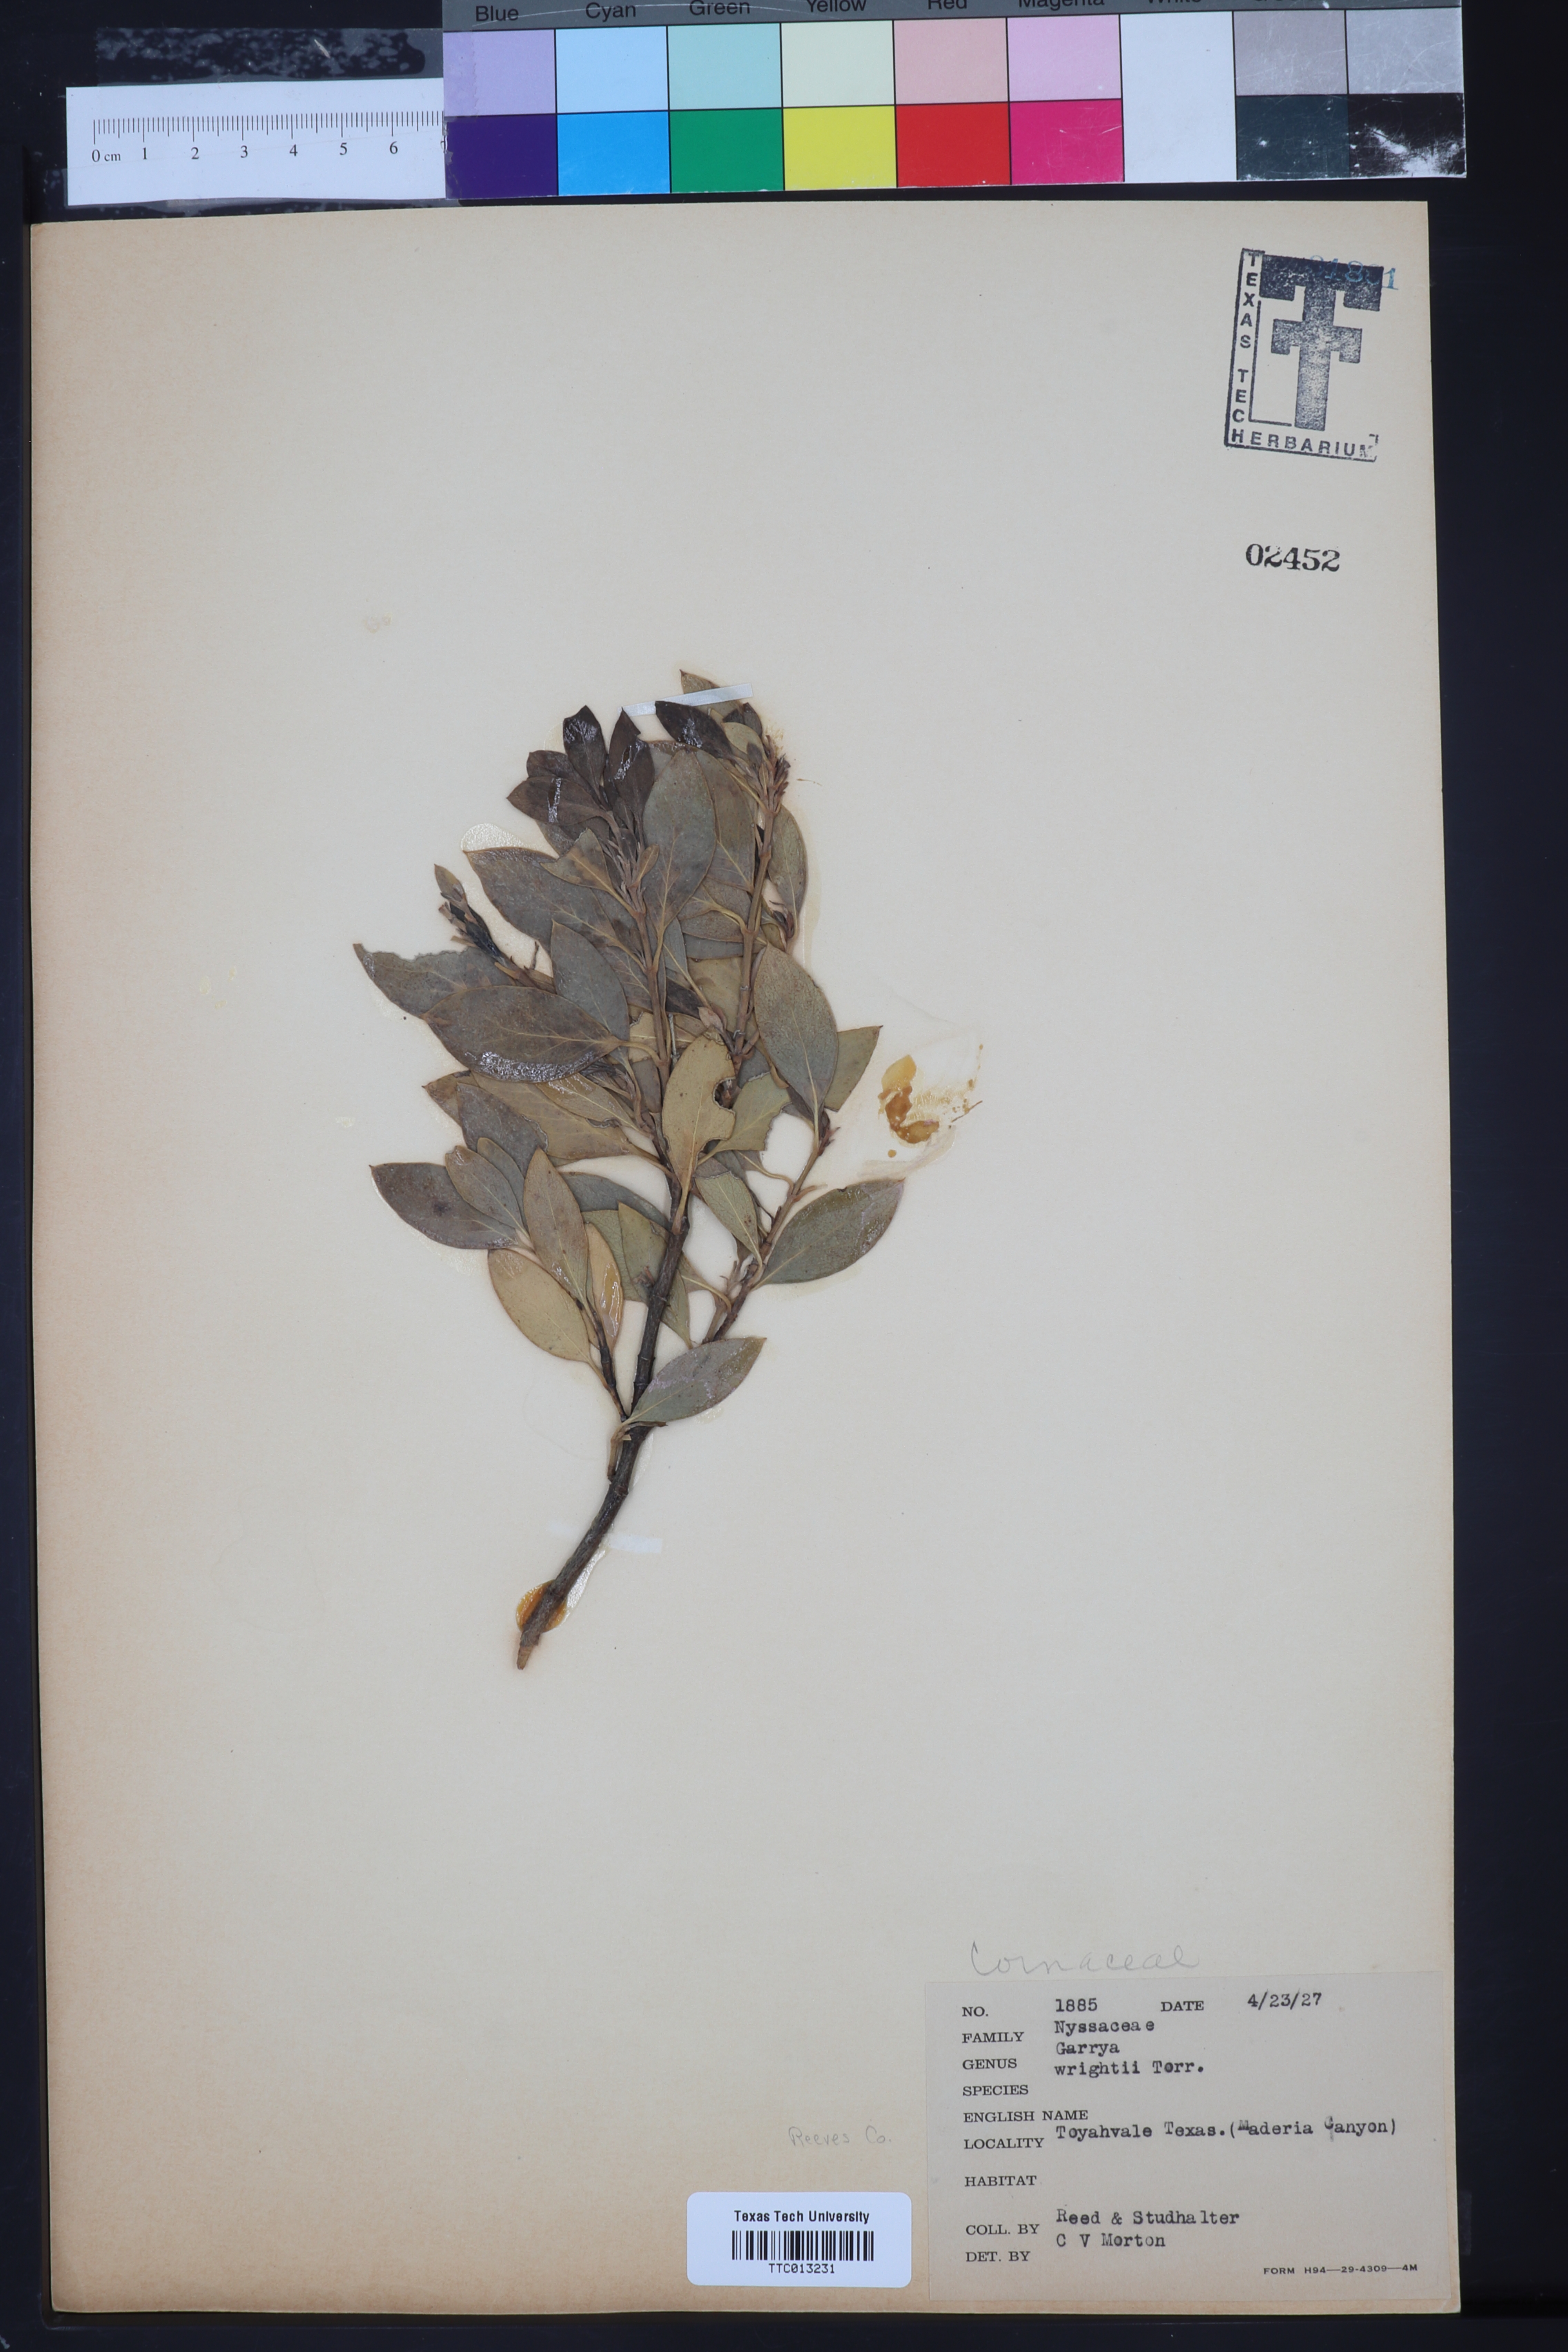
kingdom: Plantae
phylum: Tracheophyta
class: Magnoliopsida
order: Garryales
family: Garryaceae
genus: Garrya
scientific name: Garrya wrightii
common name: Wright's silktassel
